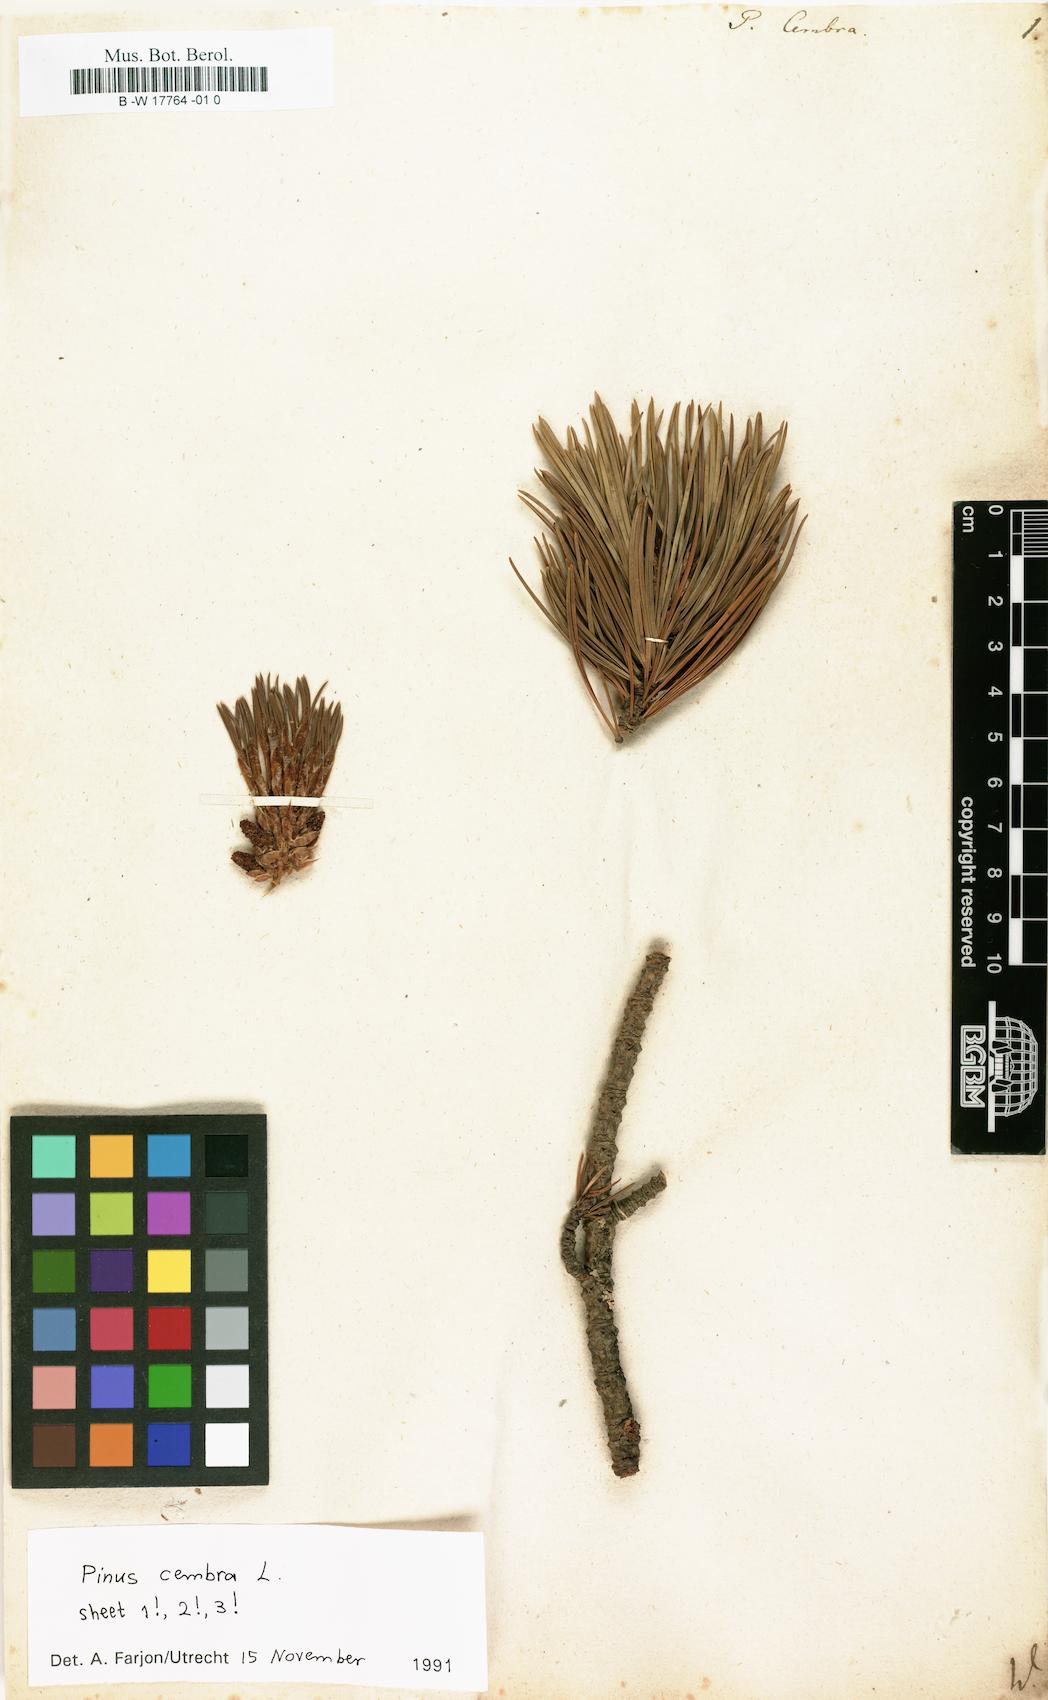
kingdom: Plantae
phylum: Tracheophyta
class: Pinopsida
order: Pinales
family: Pinaceae
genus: Pinus
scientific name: Pinus cembra
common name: Arolla pine
